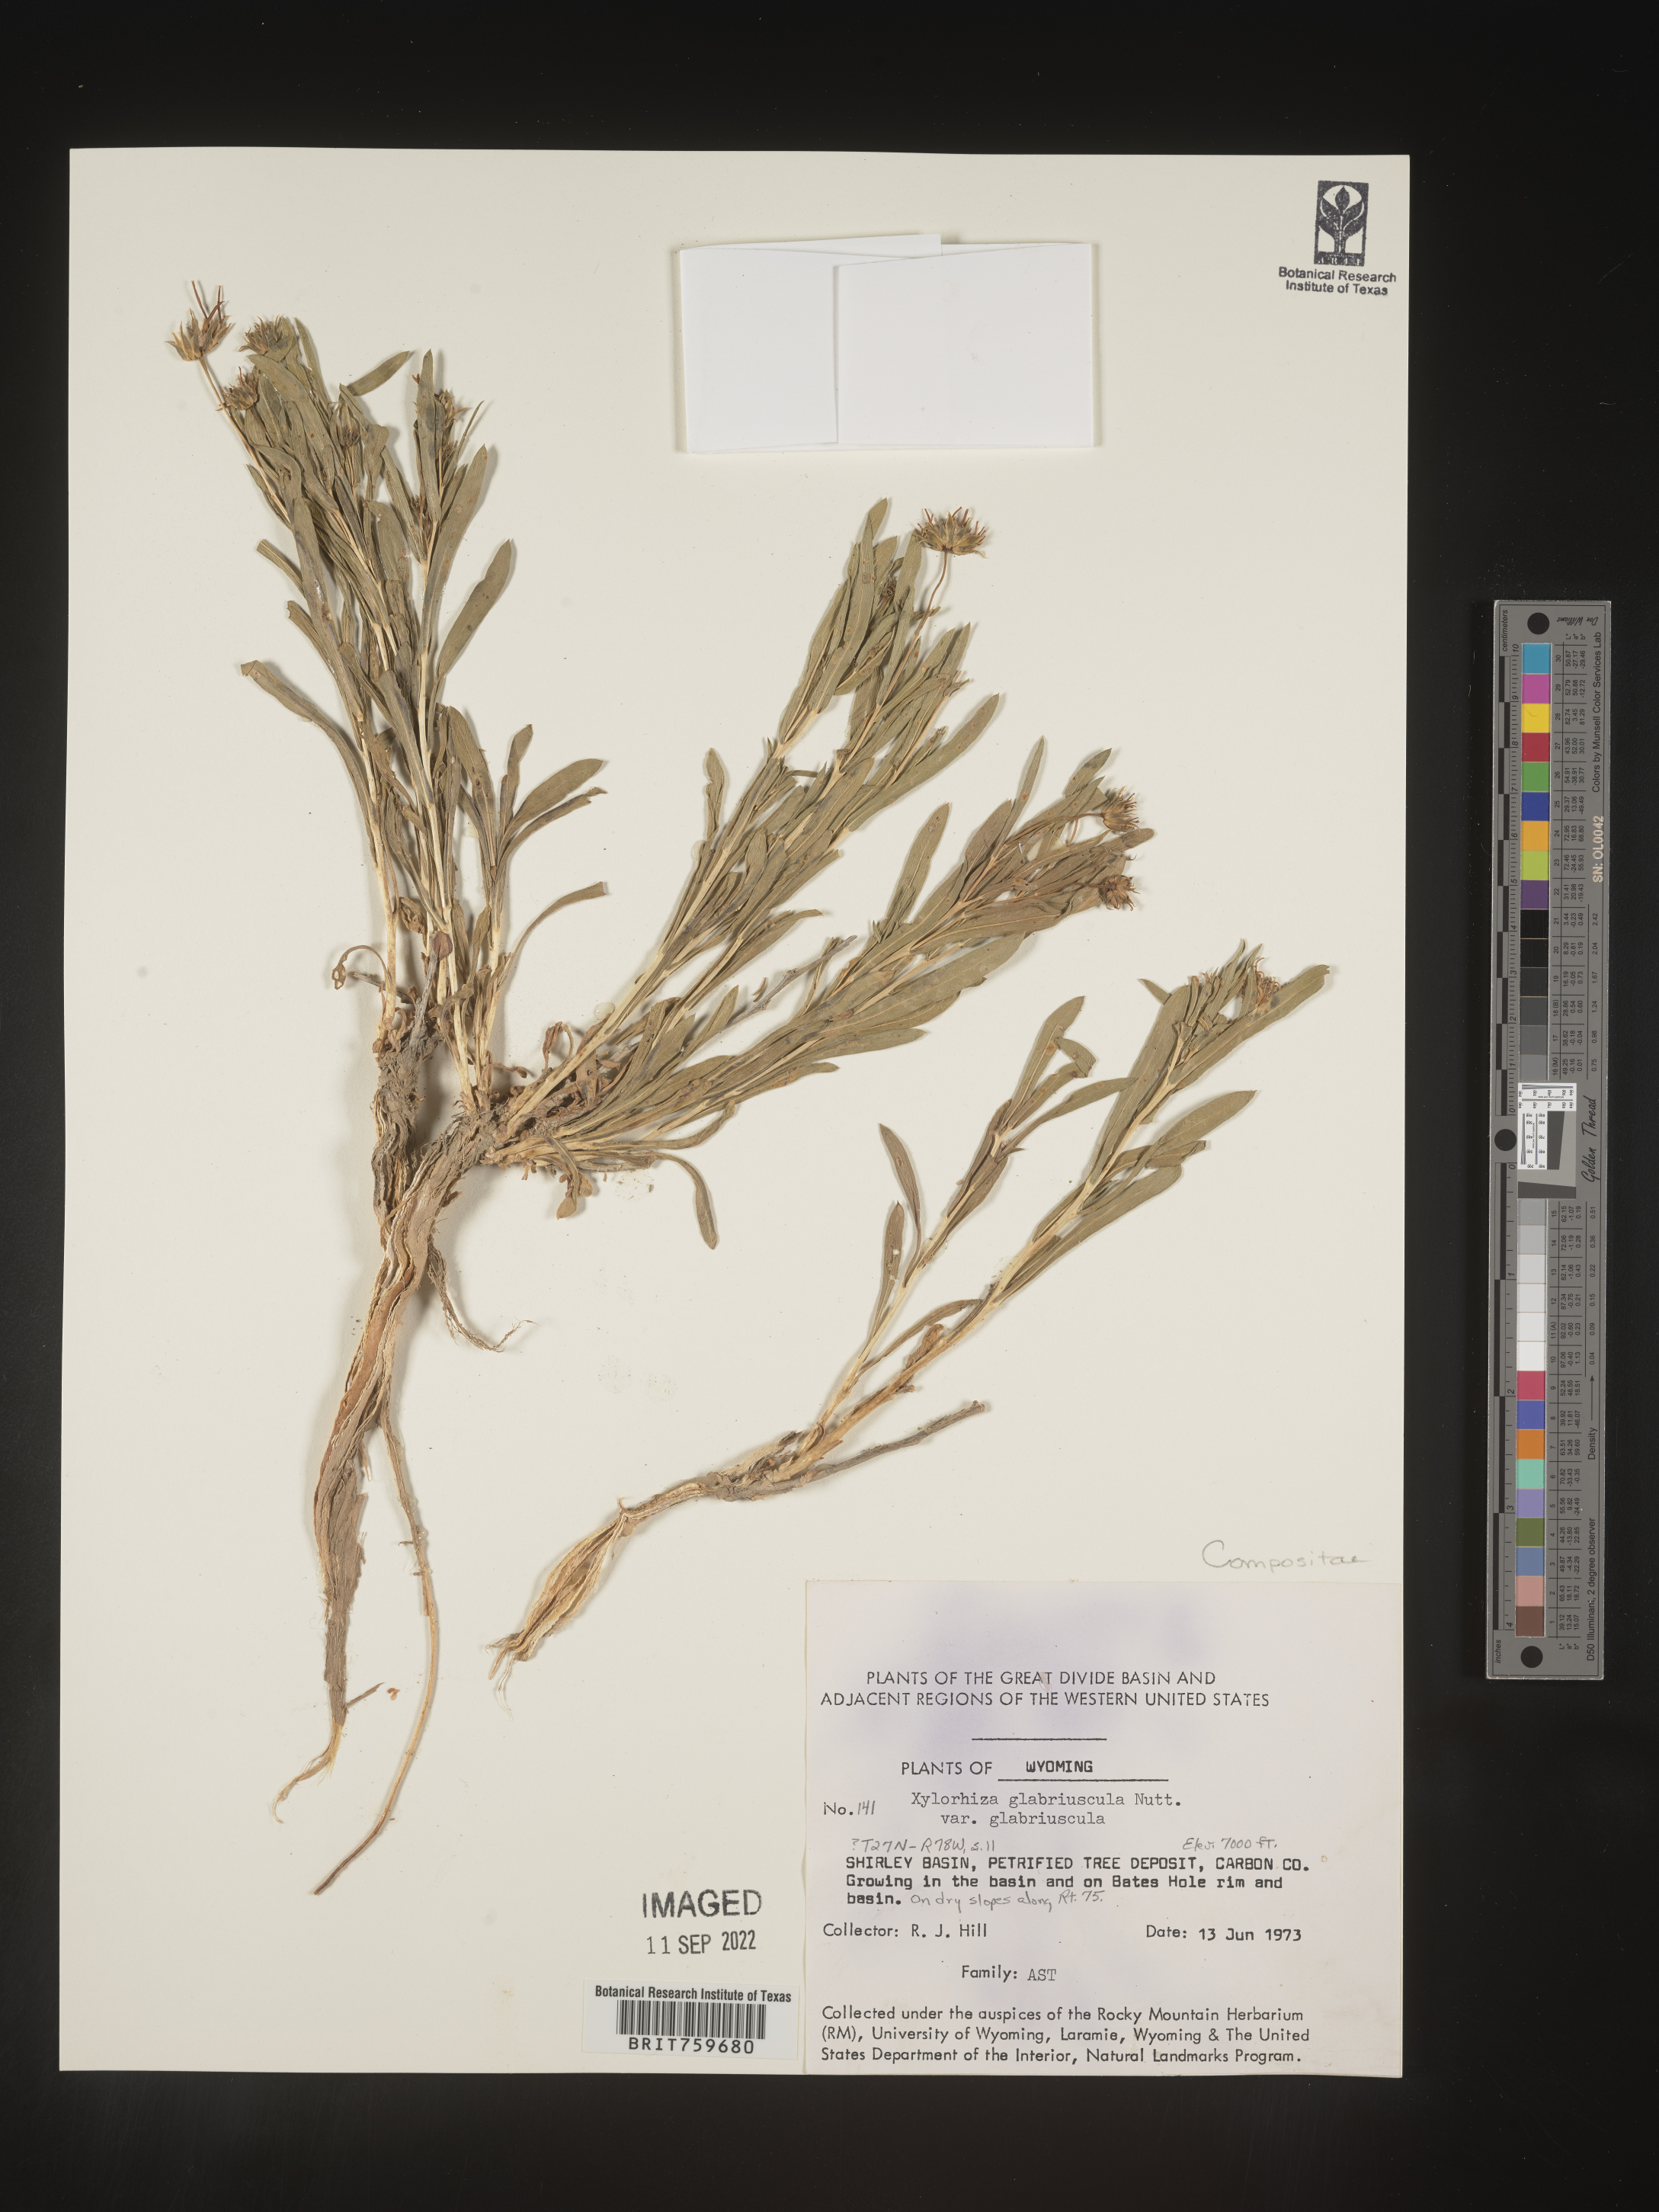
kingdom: Plantae
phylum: Tracheophyta
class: Magnoliopsida
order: Asterales
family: Asteraceae
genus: Xylorhiza
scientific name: Xylorhiza glabriuscula
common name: Smooth woody-aster
